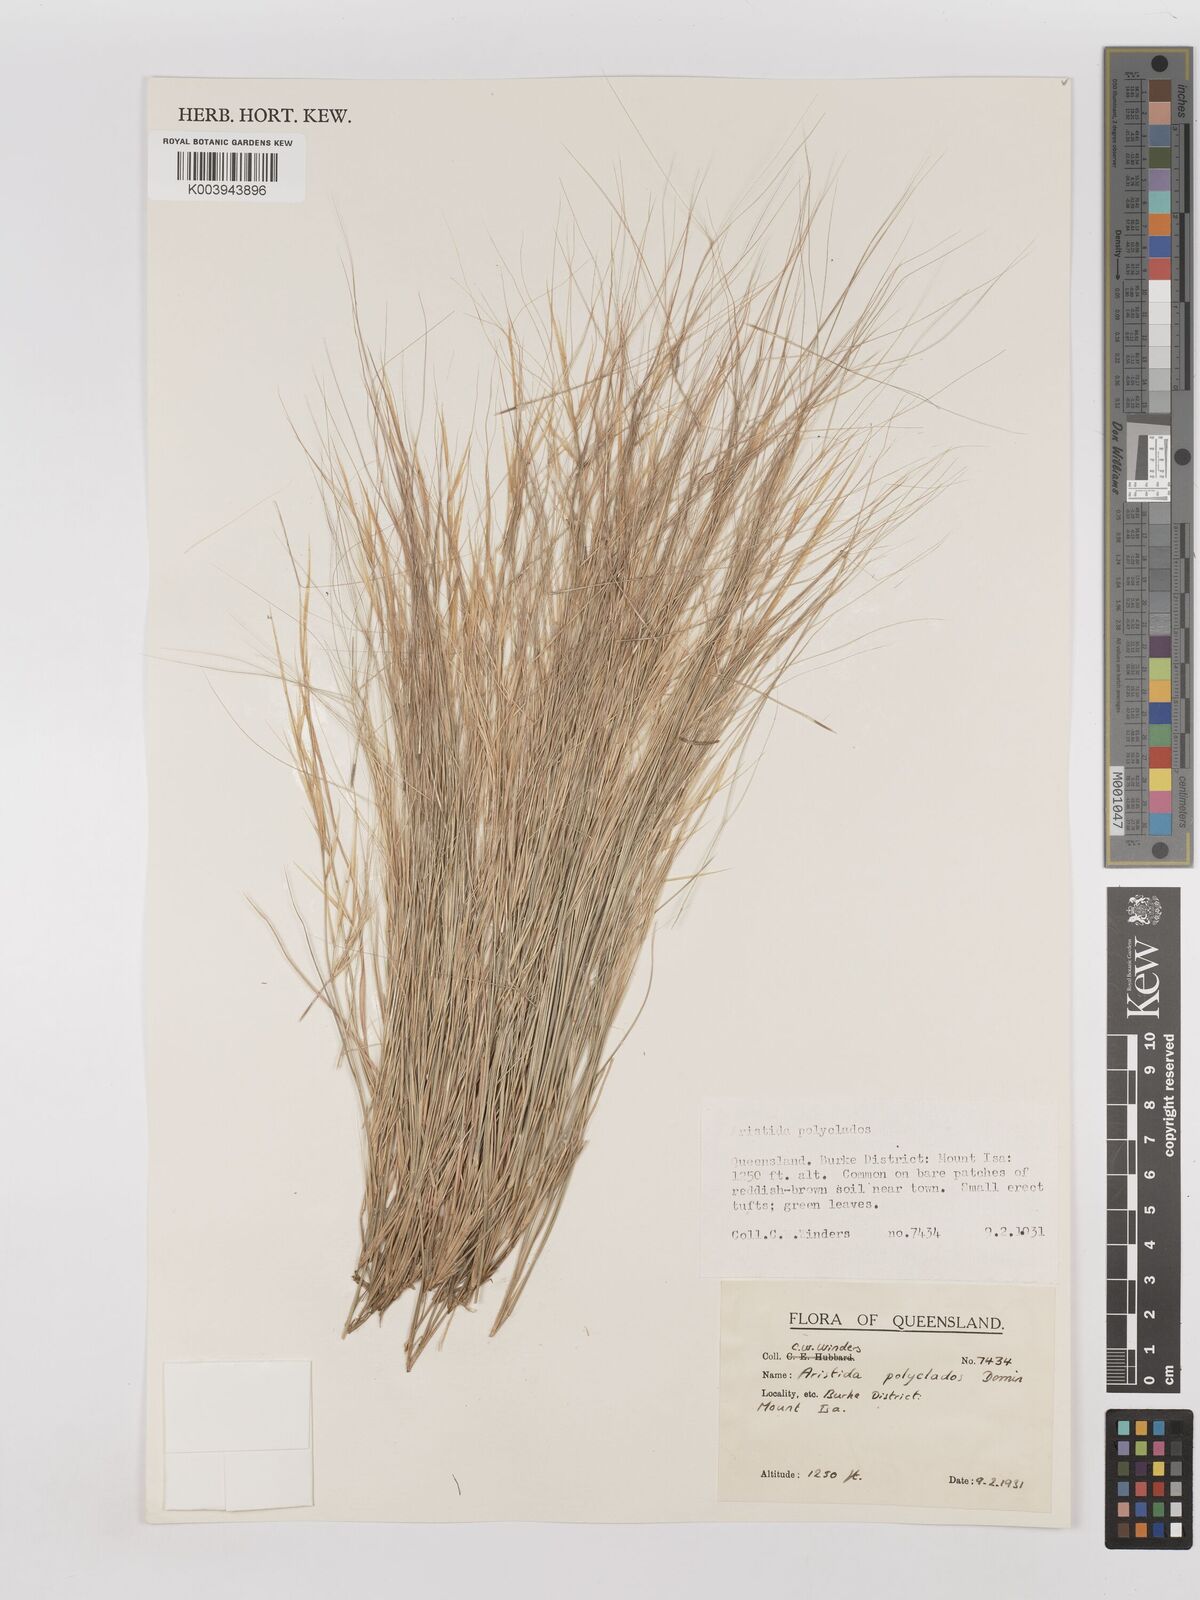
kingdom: Plantae
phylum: Tracheophyta
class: Liliopsida
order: Poales
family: Poaceae
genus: Aristida
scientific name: Aristida polyclados
